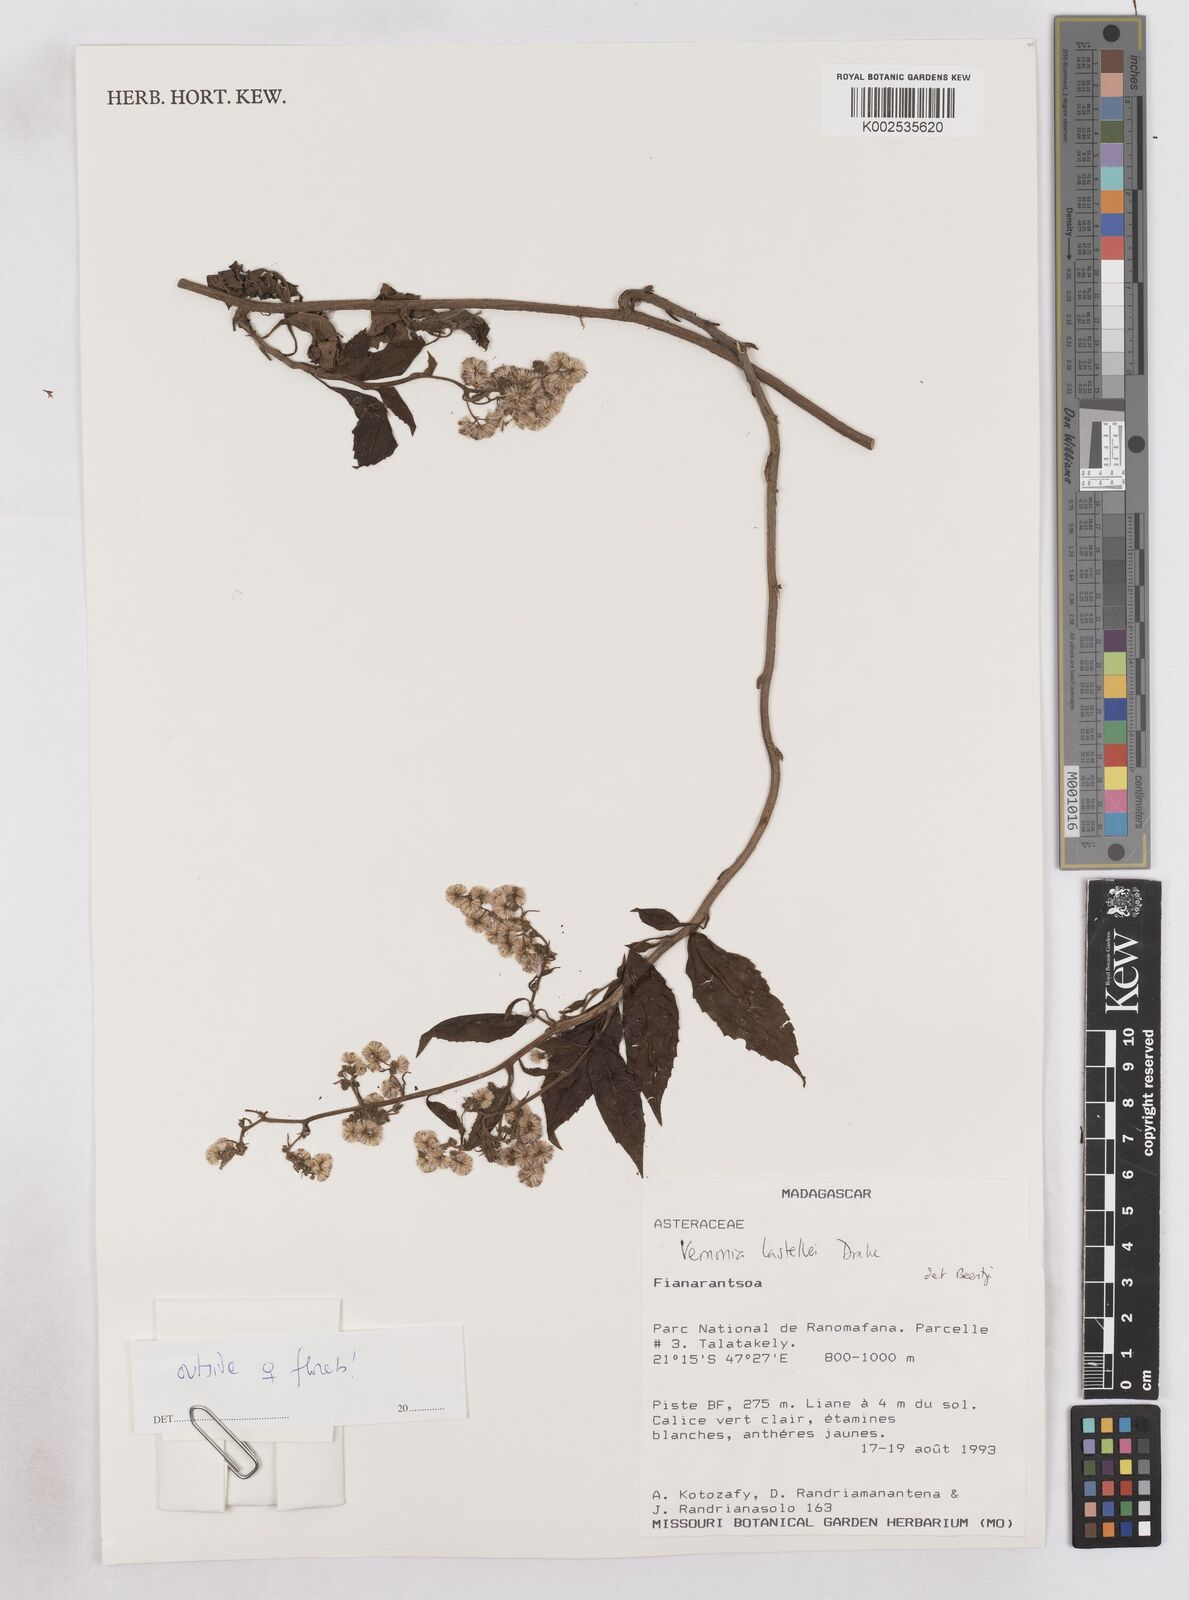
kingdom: Plantae
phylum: Tracheophyta
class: Magnoliopsida
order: Asterales
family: Asteraceae
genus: Distephanus
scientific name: Distephanus lastellei
